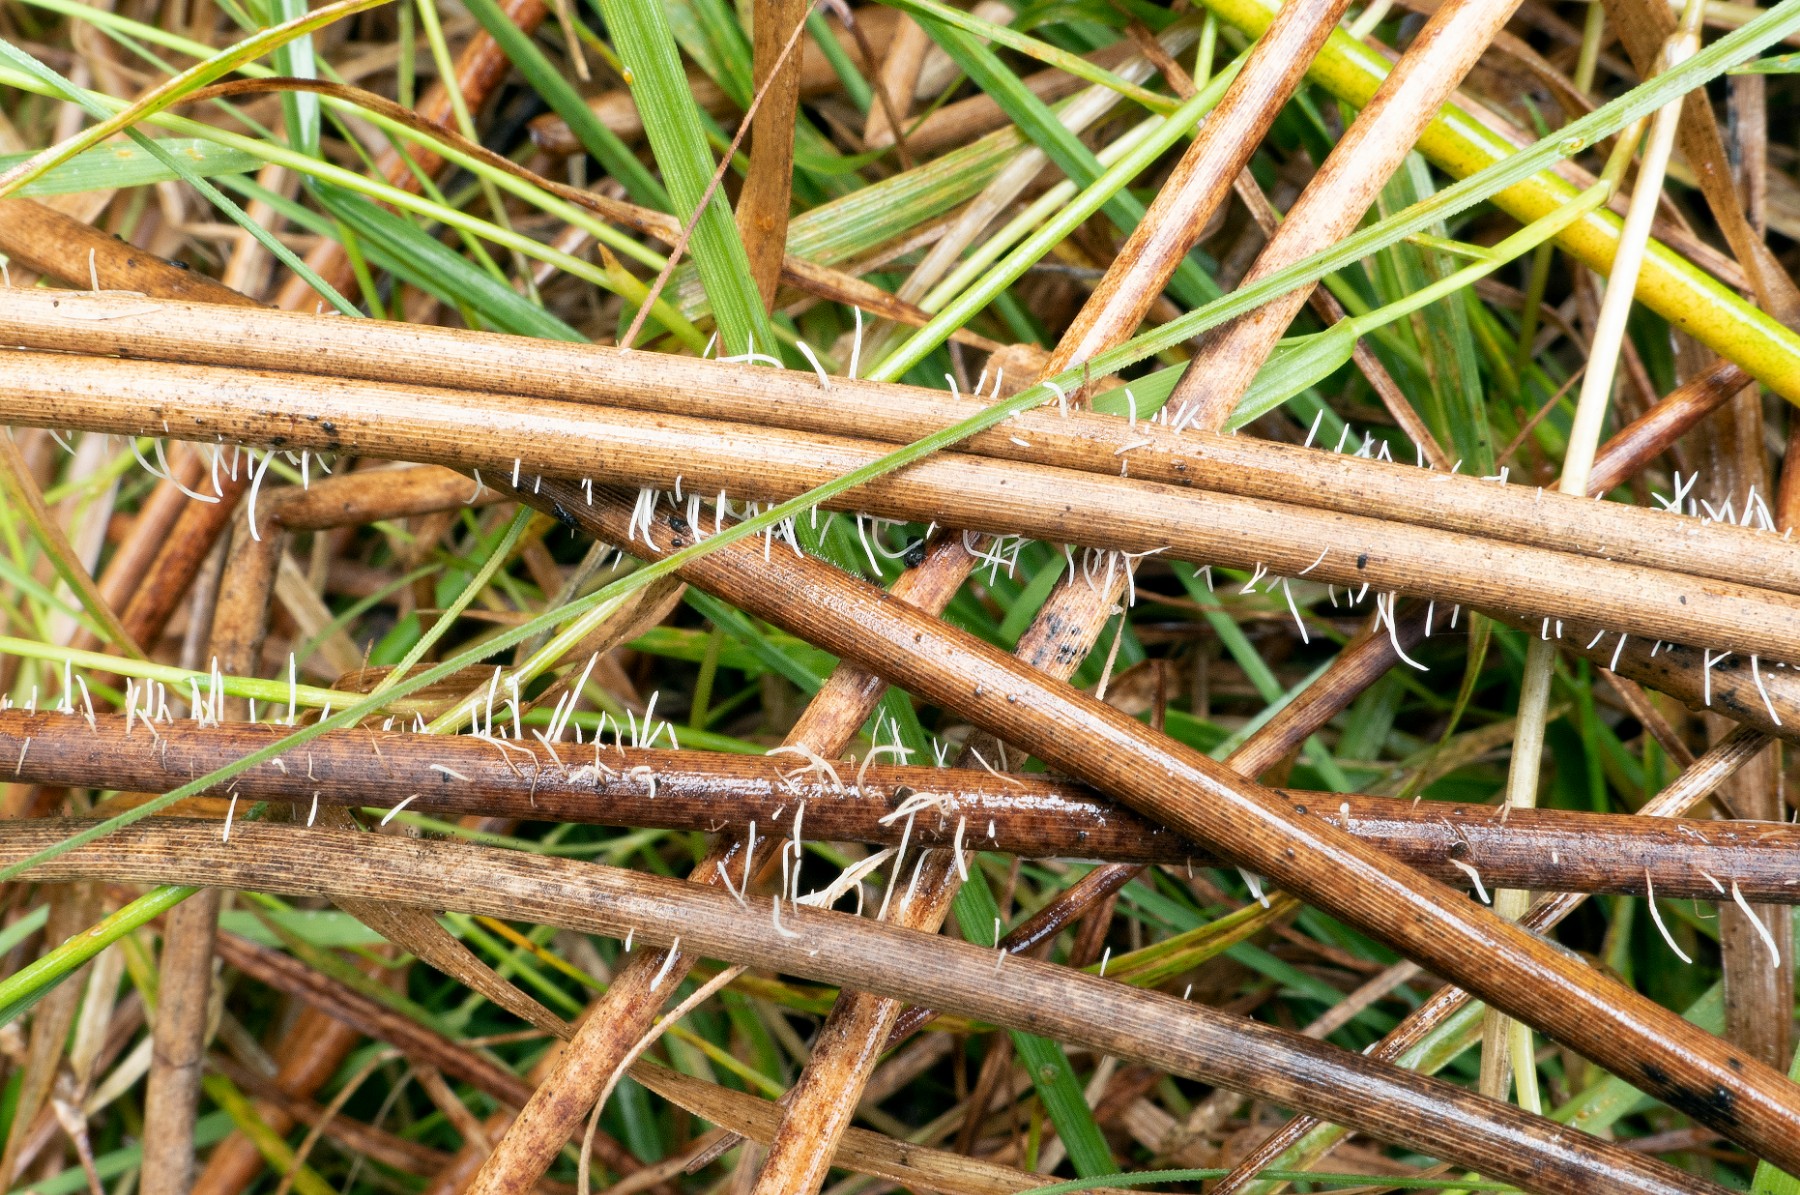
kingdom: Fungi
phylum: Basidiomycota
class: Agaricomycetes
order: Agaricales
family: Pterulaceae
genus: Pterulicium
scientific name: Pterulicium gracile
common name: trådformet fjerkølle
